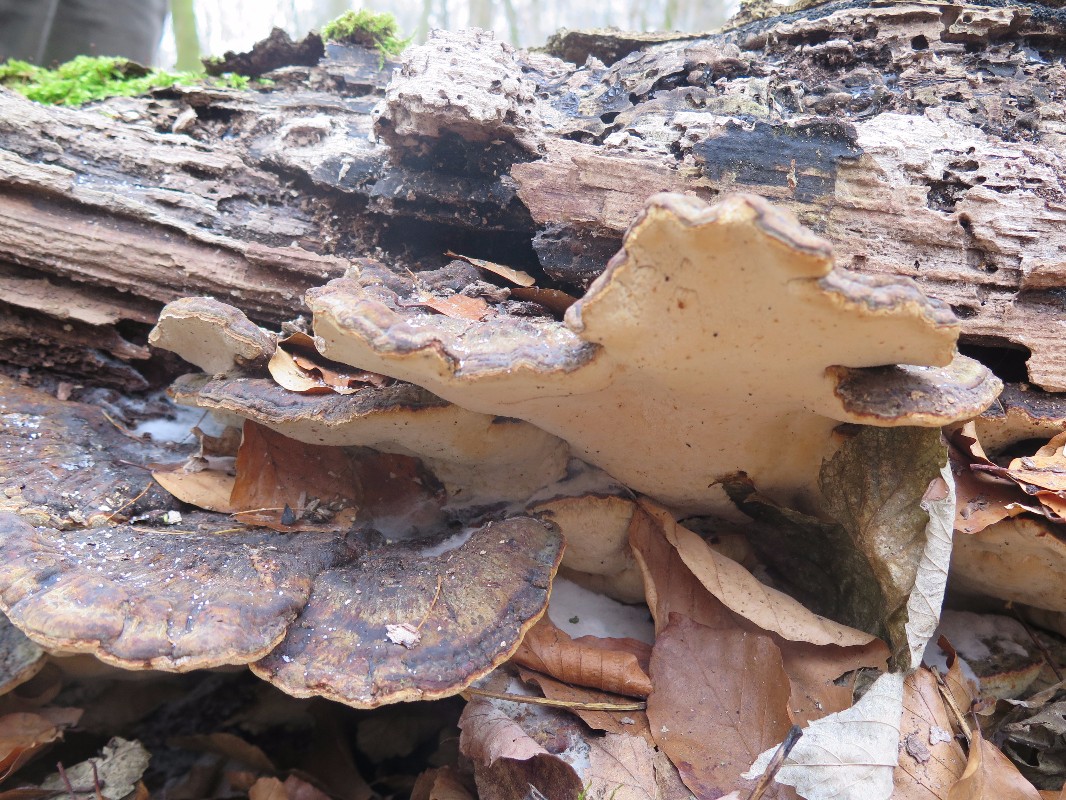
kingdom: Fungi
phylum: Basidiomycota
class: Agaricomycetes
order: Polyporales
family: Ischnodermataceae
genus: Ischnoderma
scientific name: Ischnoderma resinosum
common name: løv-tjæreporesvamp
